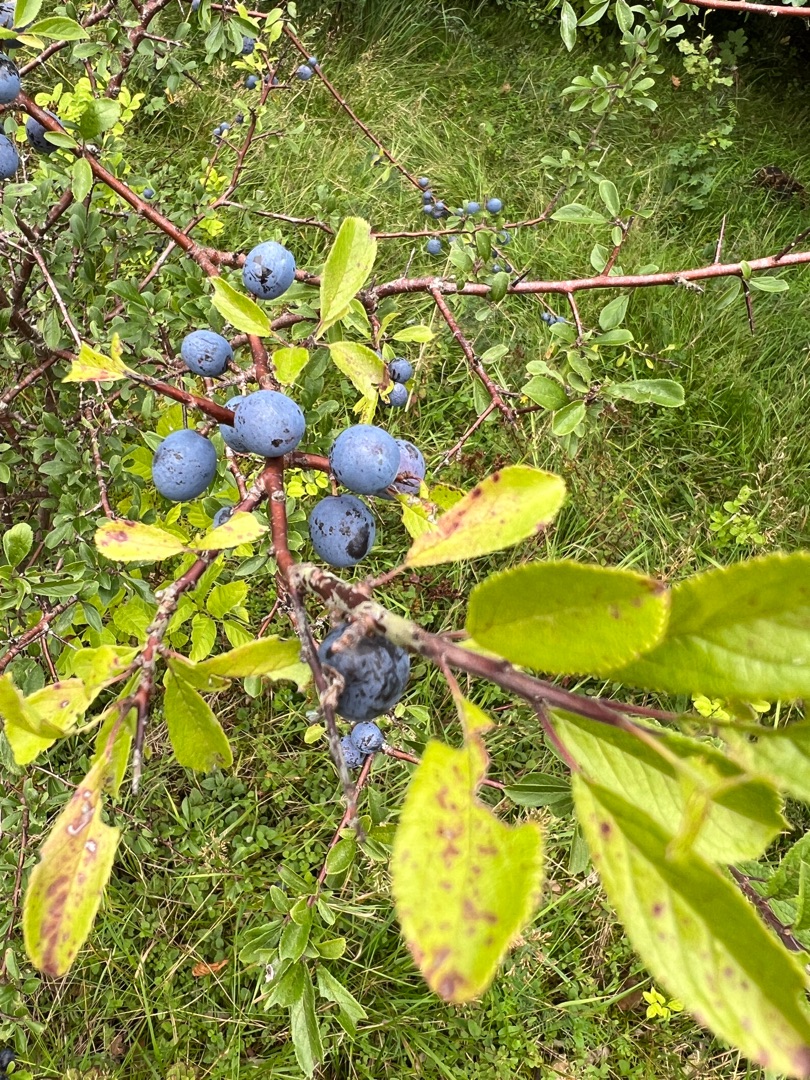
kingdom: Plantae
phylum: Tracheophyta
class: Magnoliopsida
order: Rosales
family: Rosaceae
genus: Prunus
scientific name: Prunus spinosa
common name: Slåen
